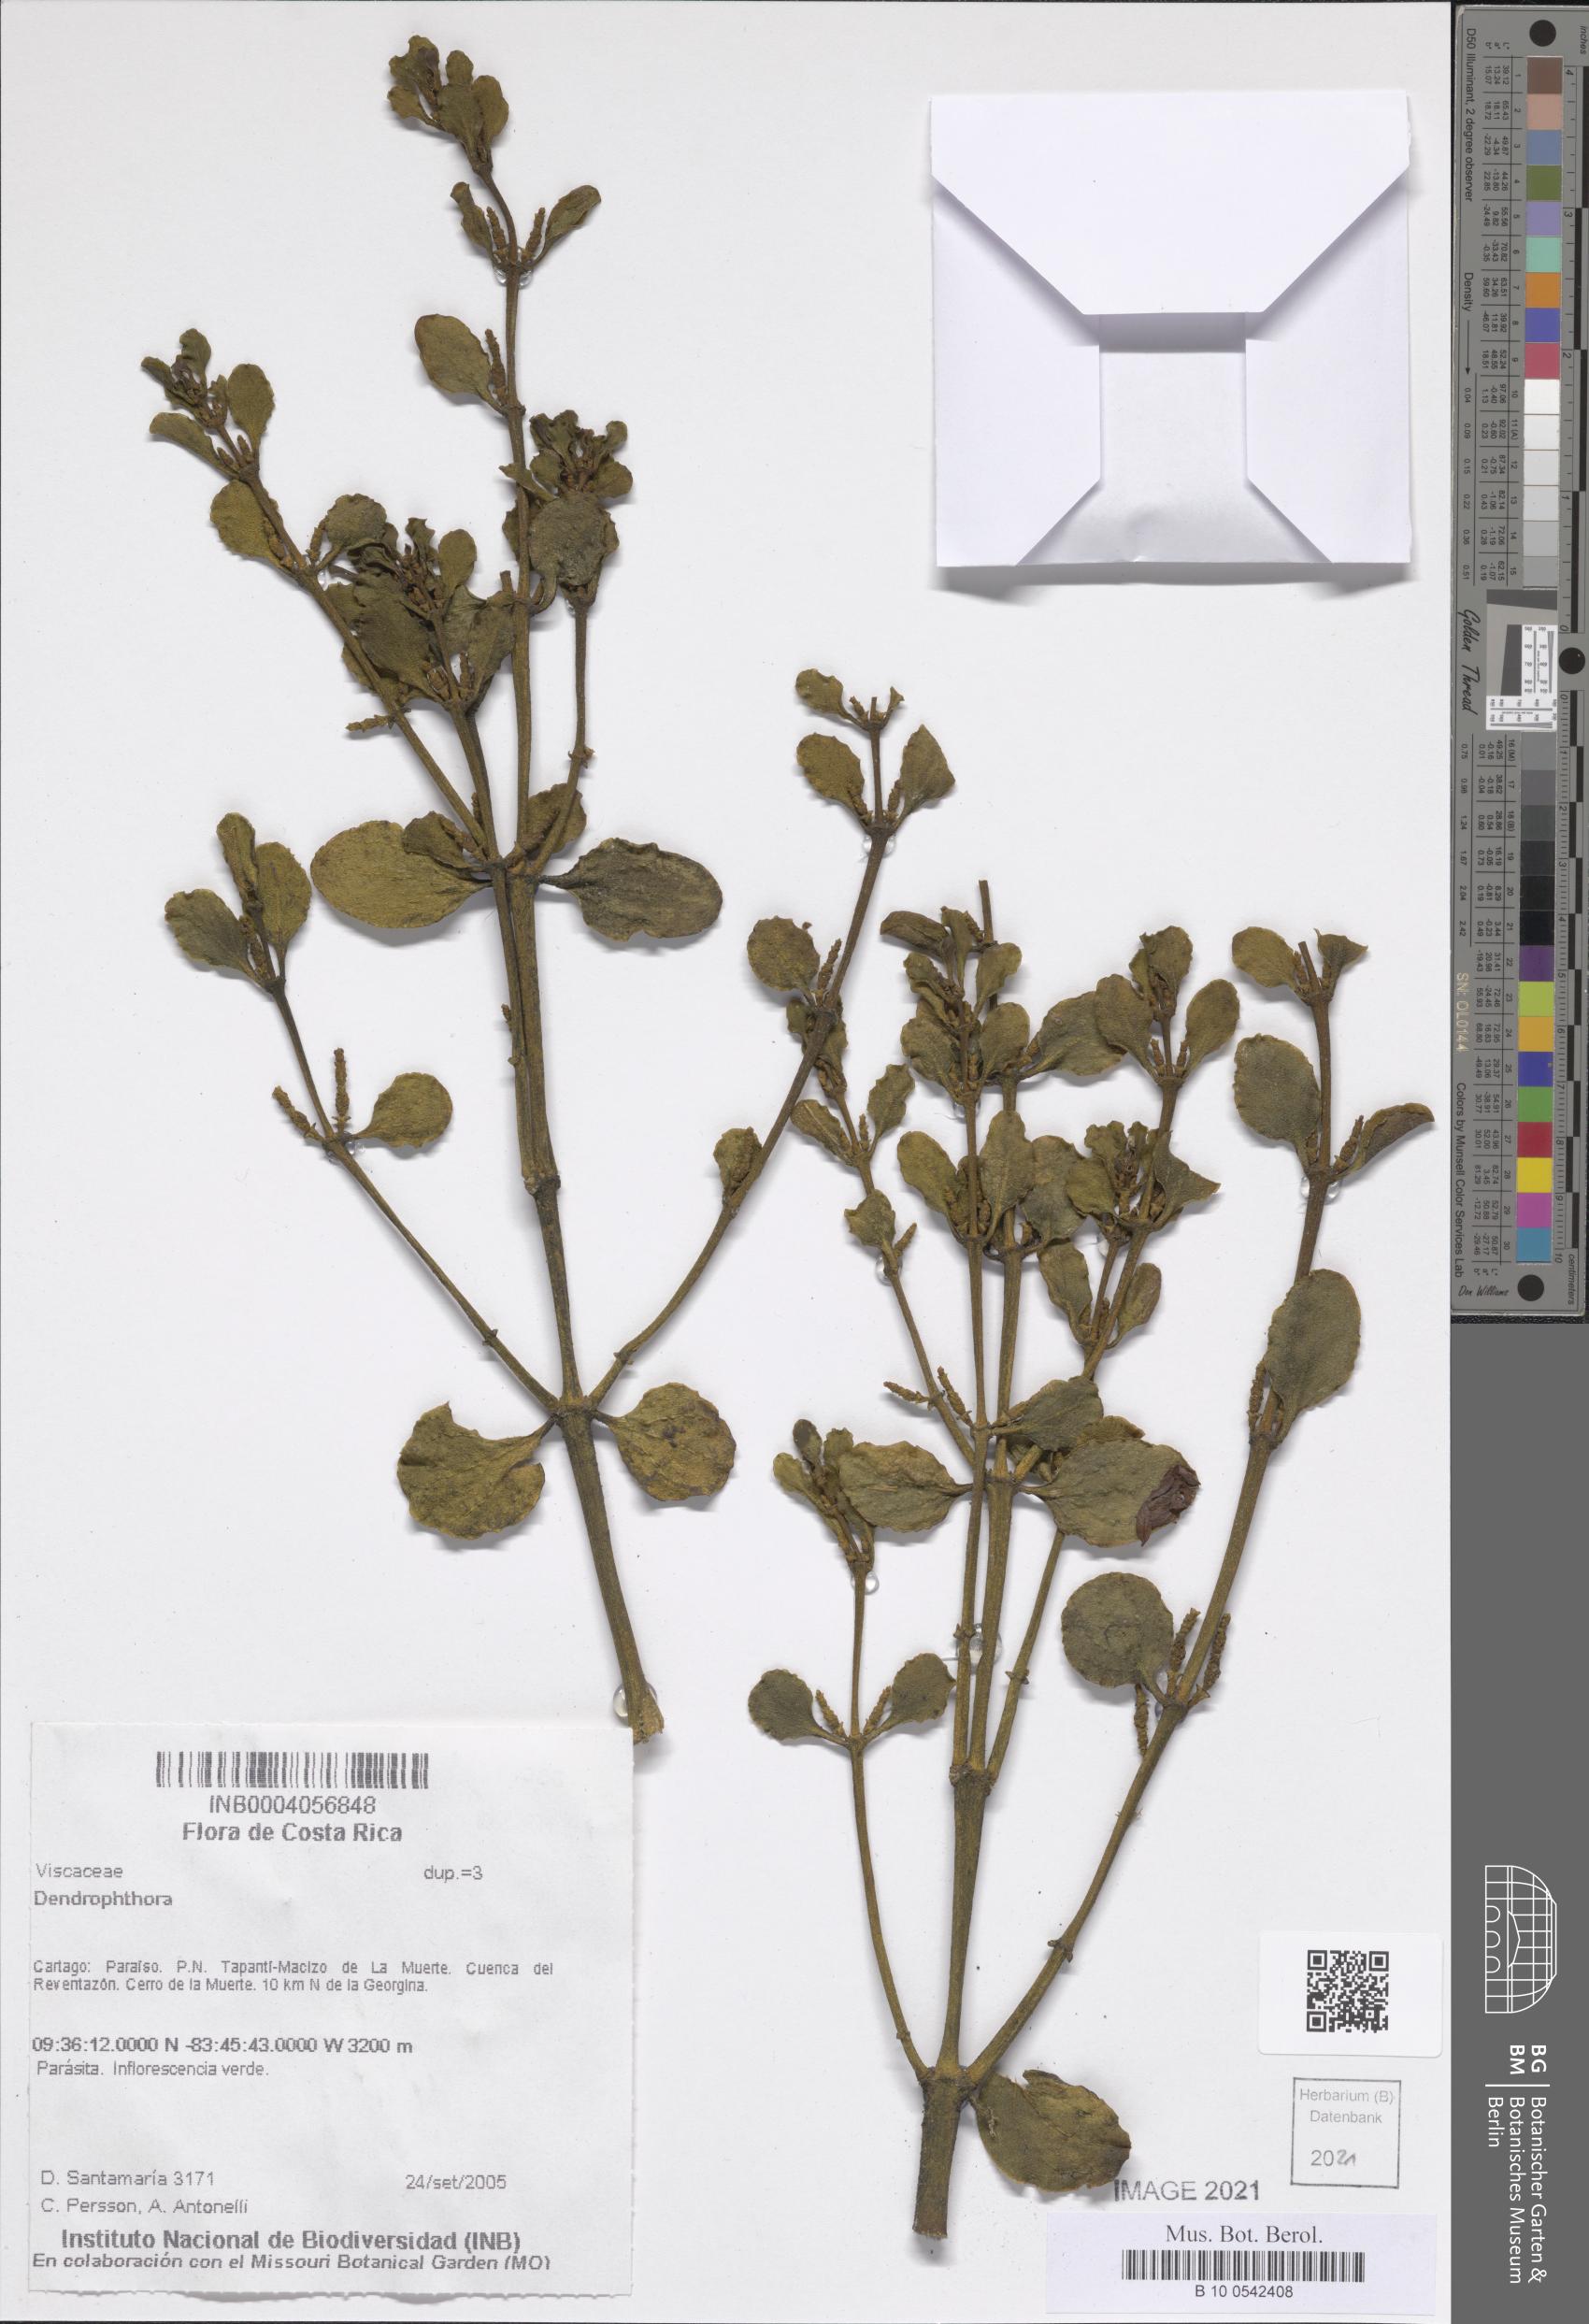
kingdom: Plantae
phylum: Tracheophyta
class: Magnoliopsida
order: Santalales
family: Viscaceae
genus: Dendrophthora
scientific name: Dendrophthora
